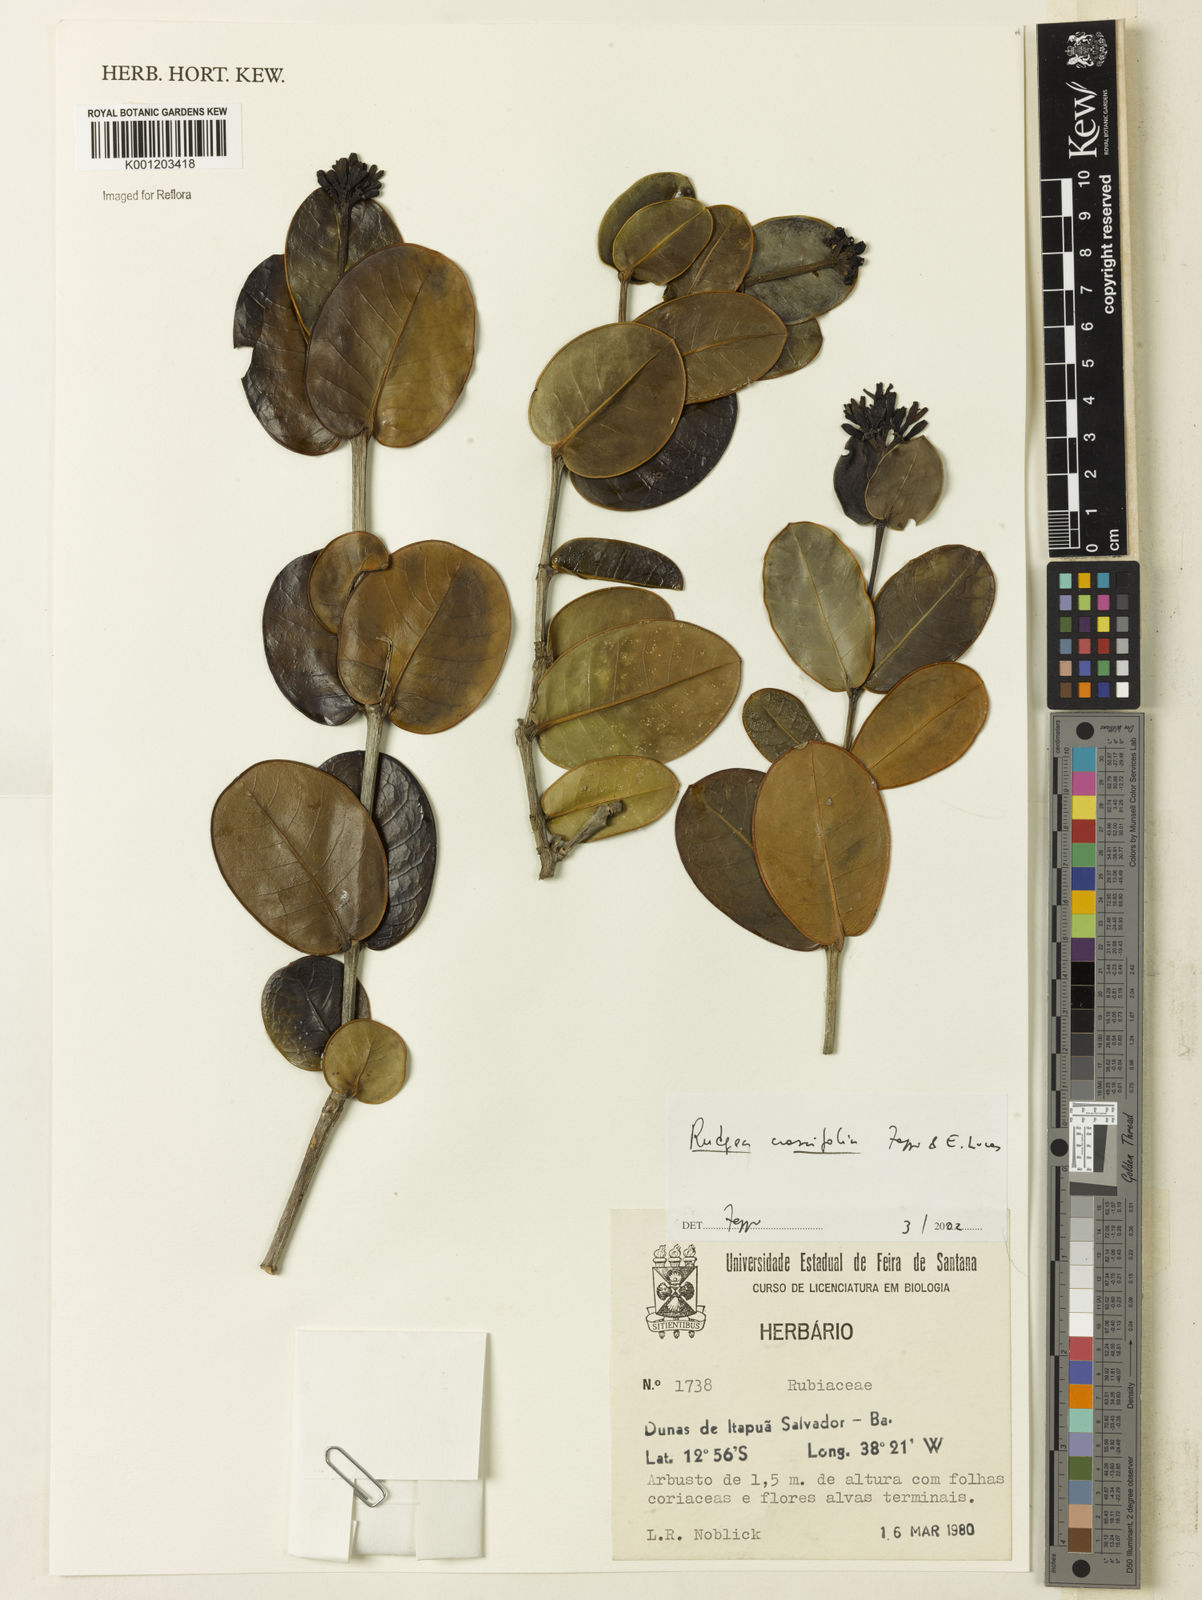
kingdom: Plantae
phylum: Tracheophyta
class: Magnoliopsida
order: Gentianales
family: Rubiaceae
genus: Rudgea
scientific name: Rudgea crassifolia
